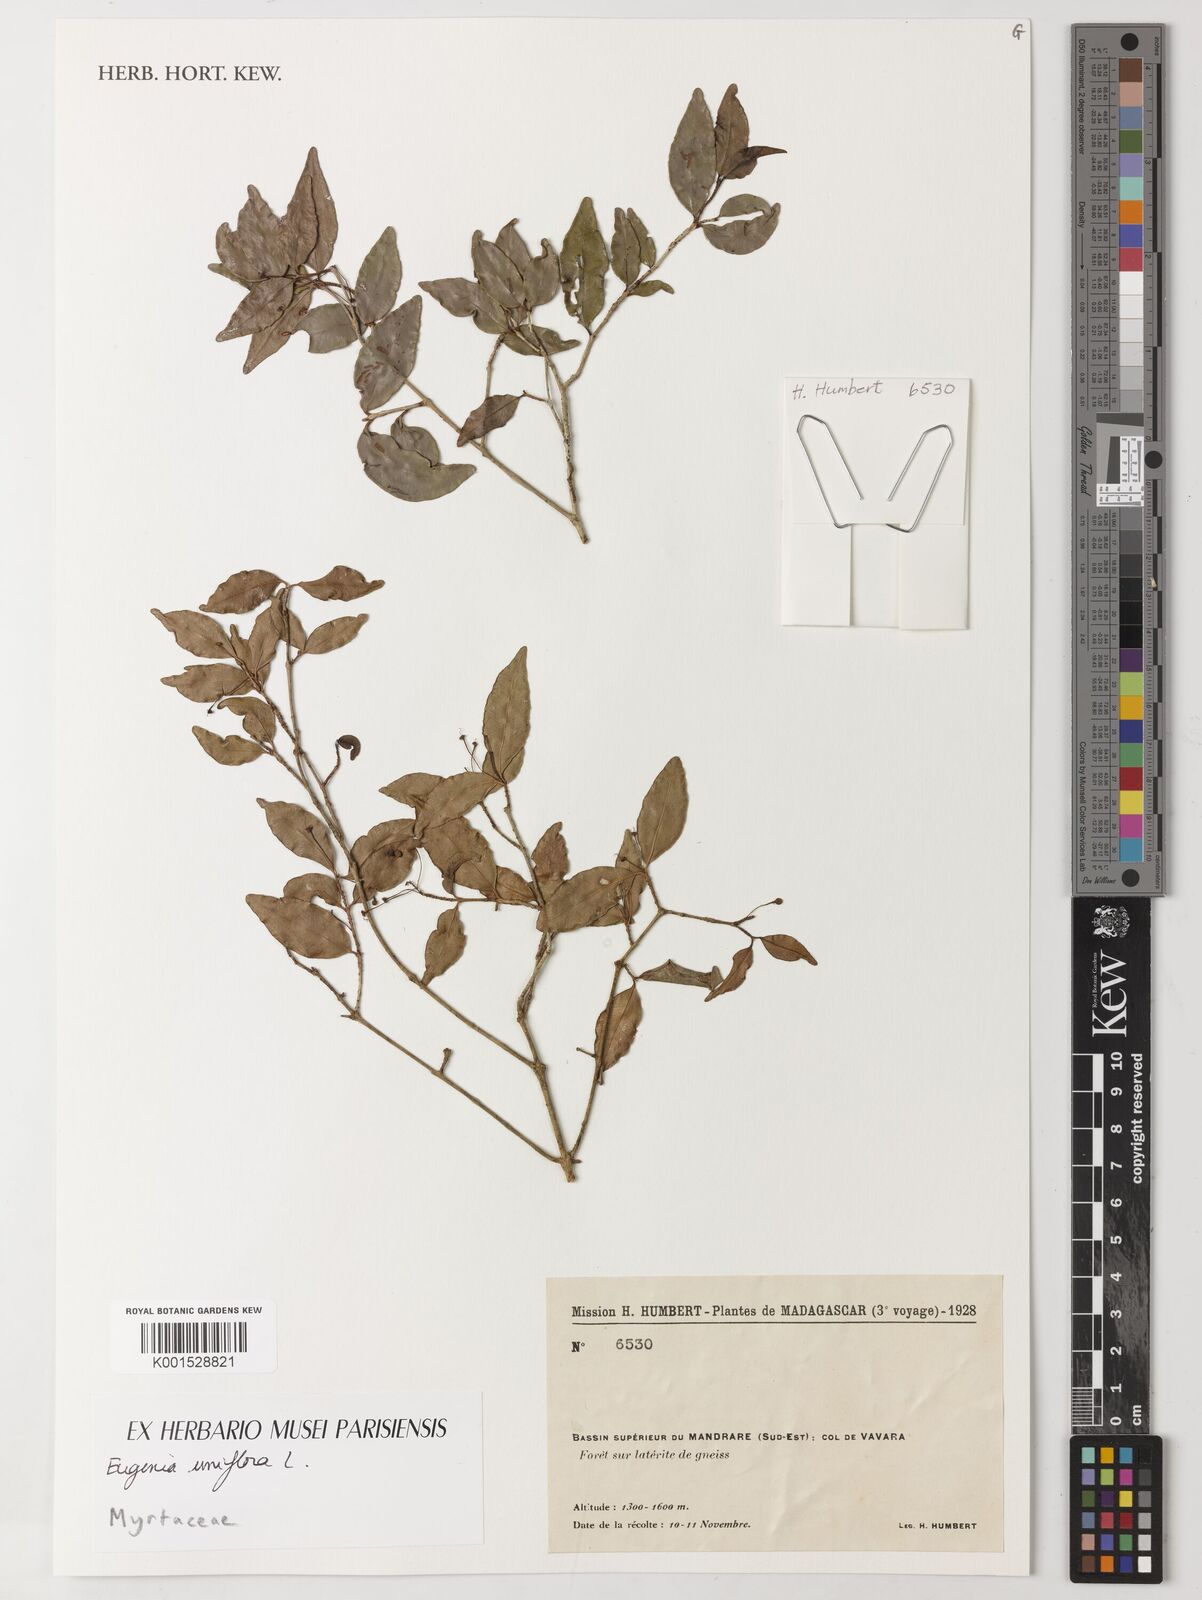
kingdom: Plantae
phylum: Tracheophyta
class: Magnoliopsida
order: Myrtales
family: Myrtaceae
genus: Eugenia
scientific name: Eugenia uniflora
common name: Surinam cherry
